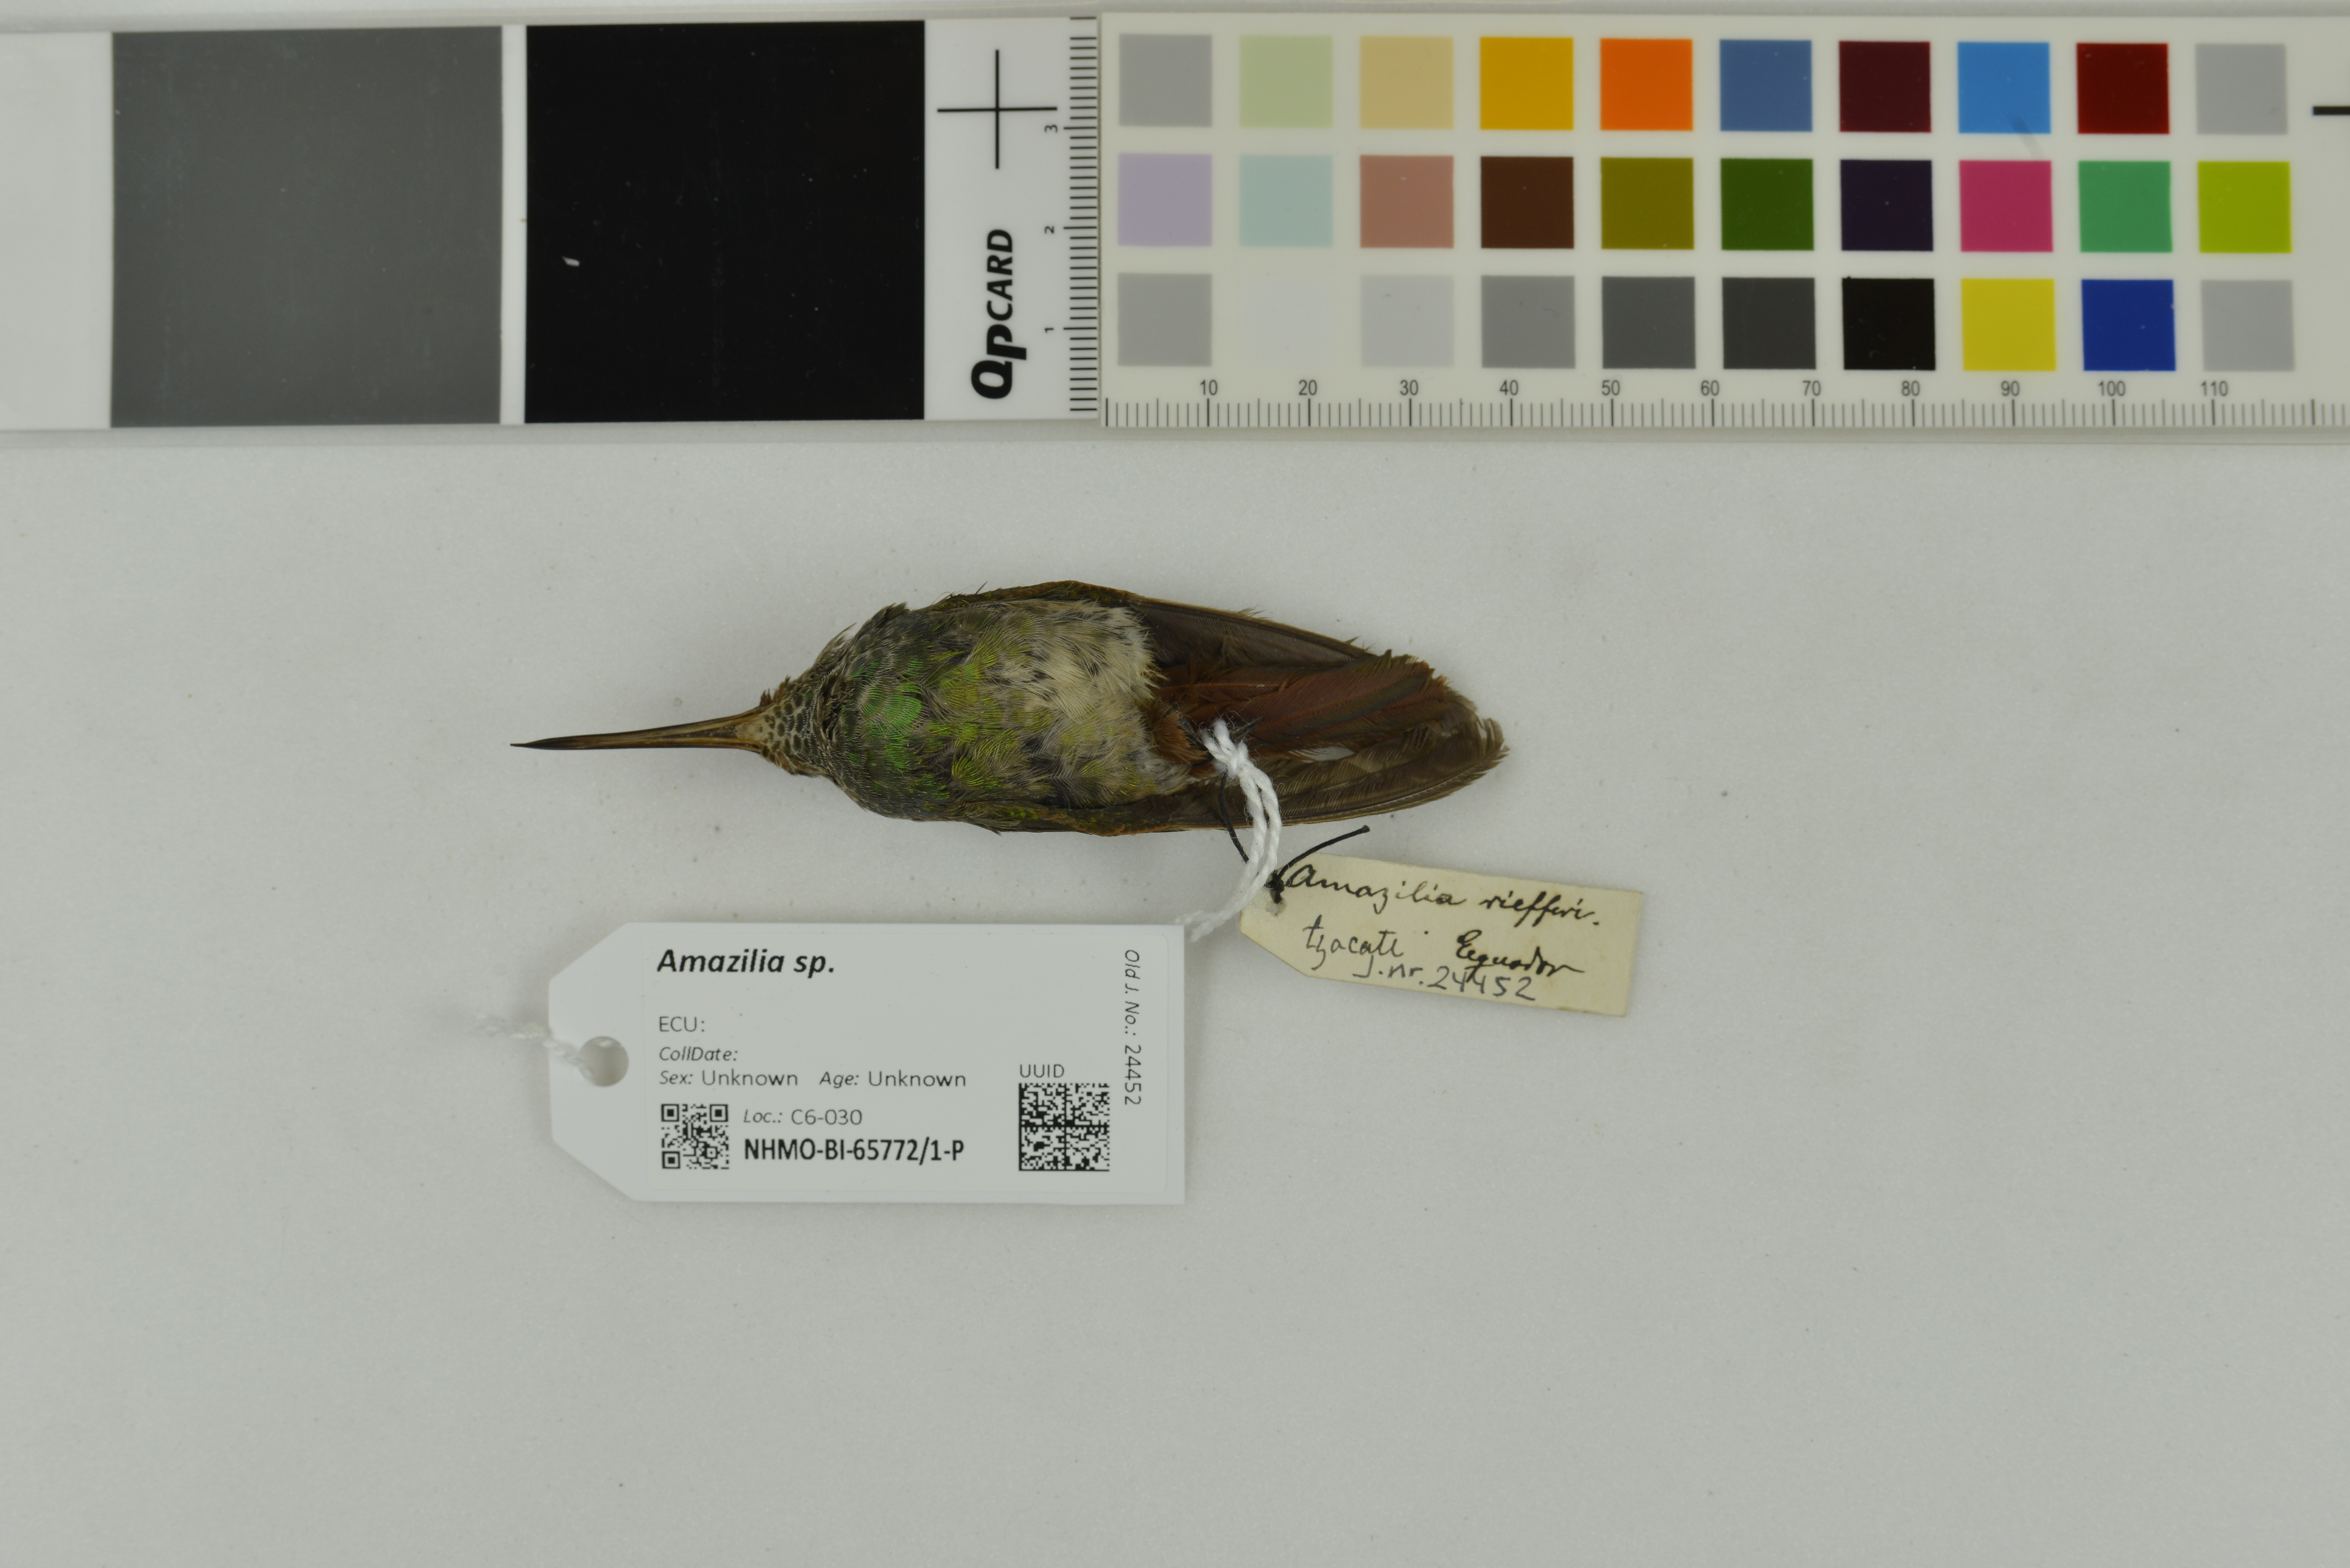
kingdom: Animalia
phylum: Chordata
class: Aves
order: Apodiformes
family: Trochilidae
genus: Amazilia
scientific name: Amazilia
